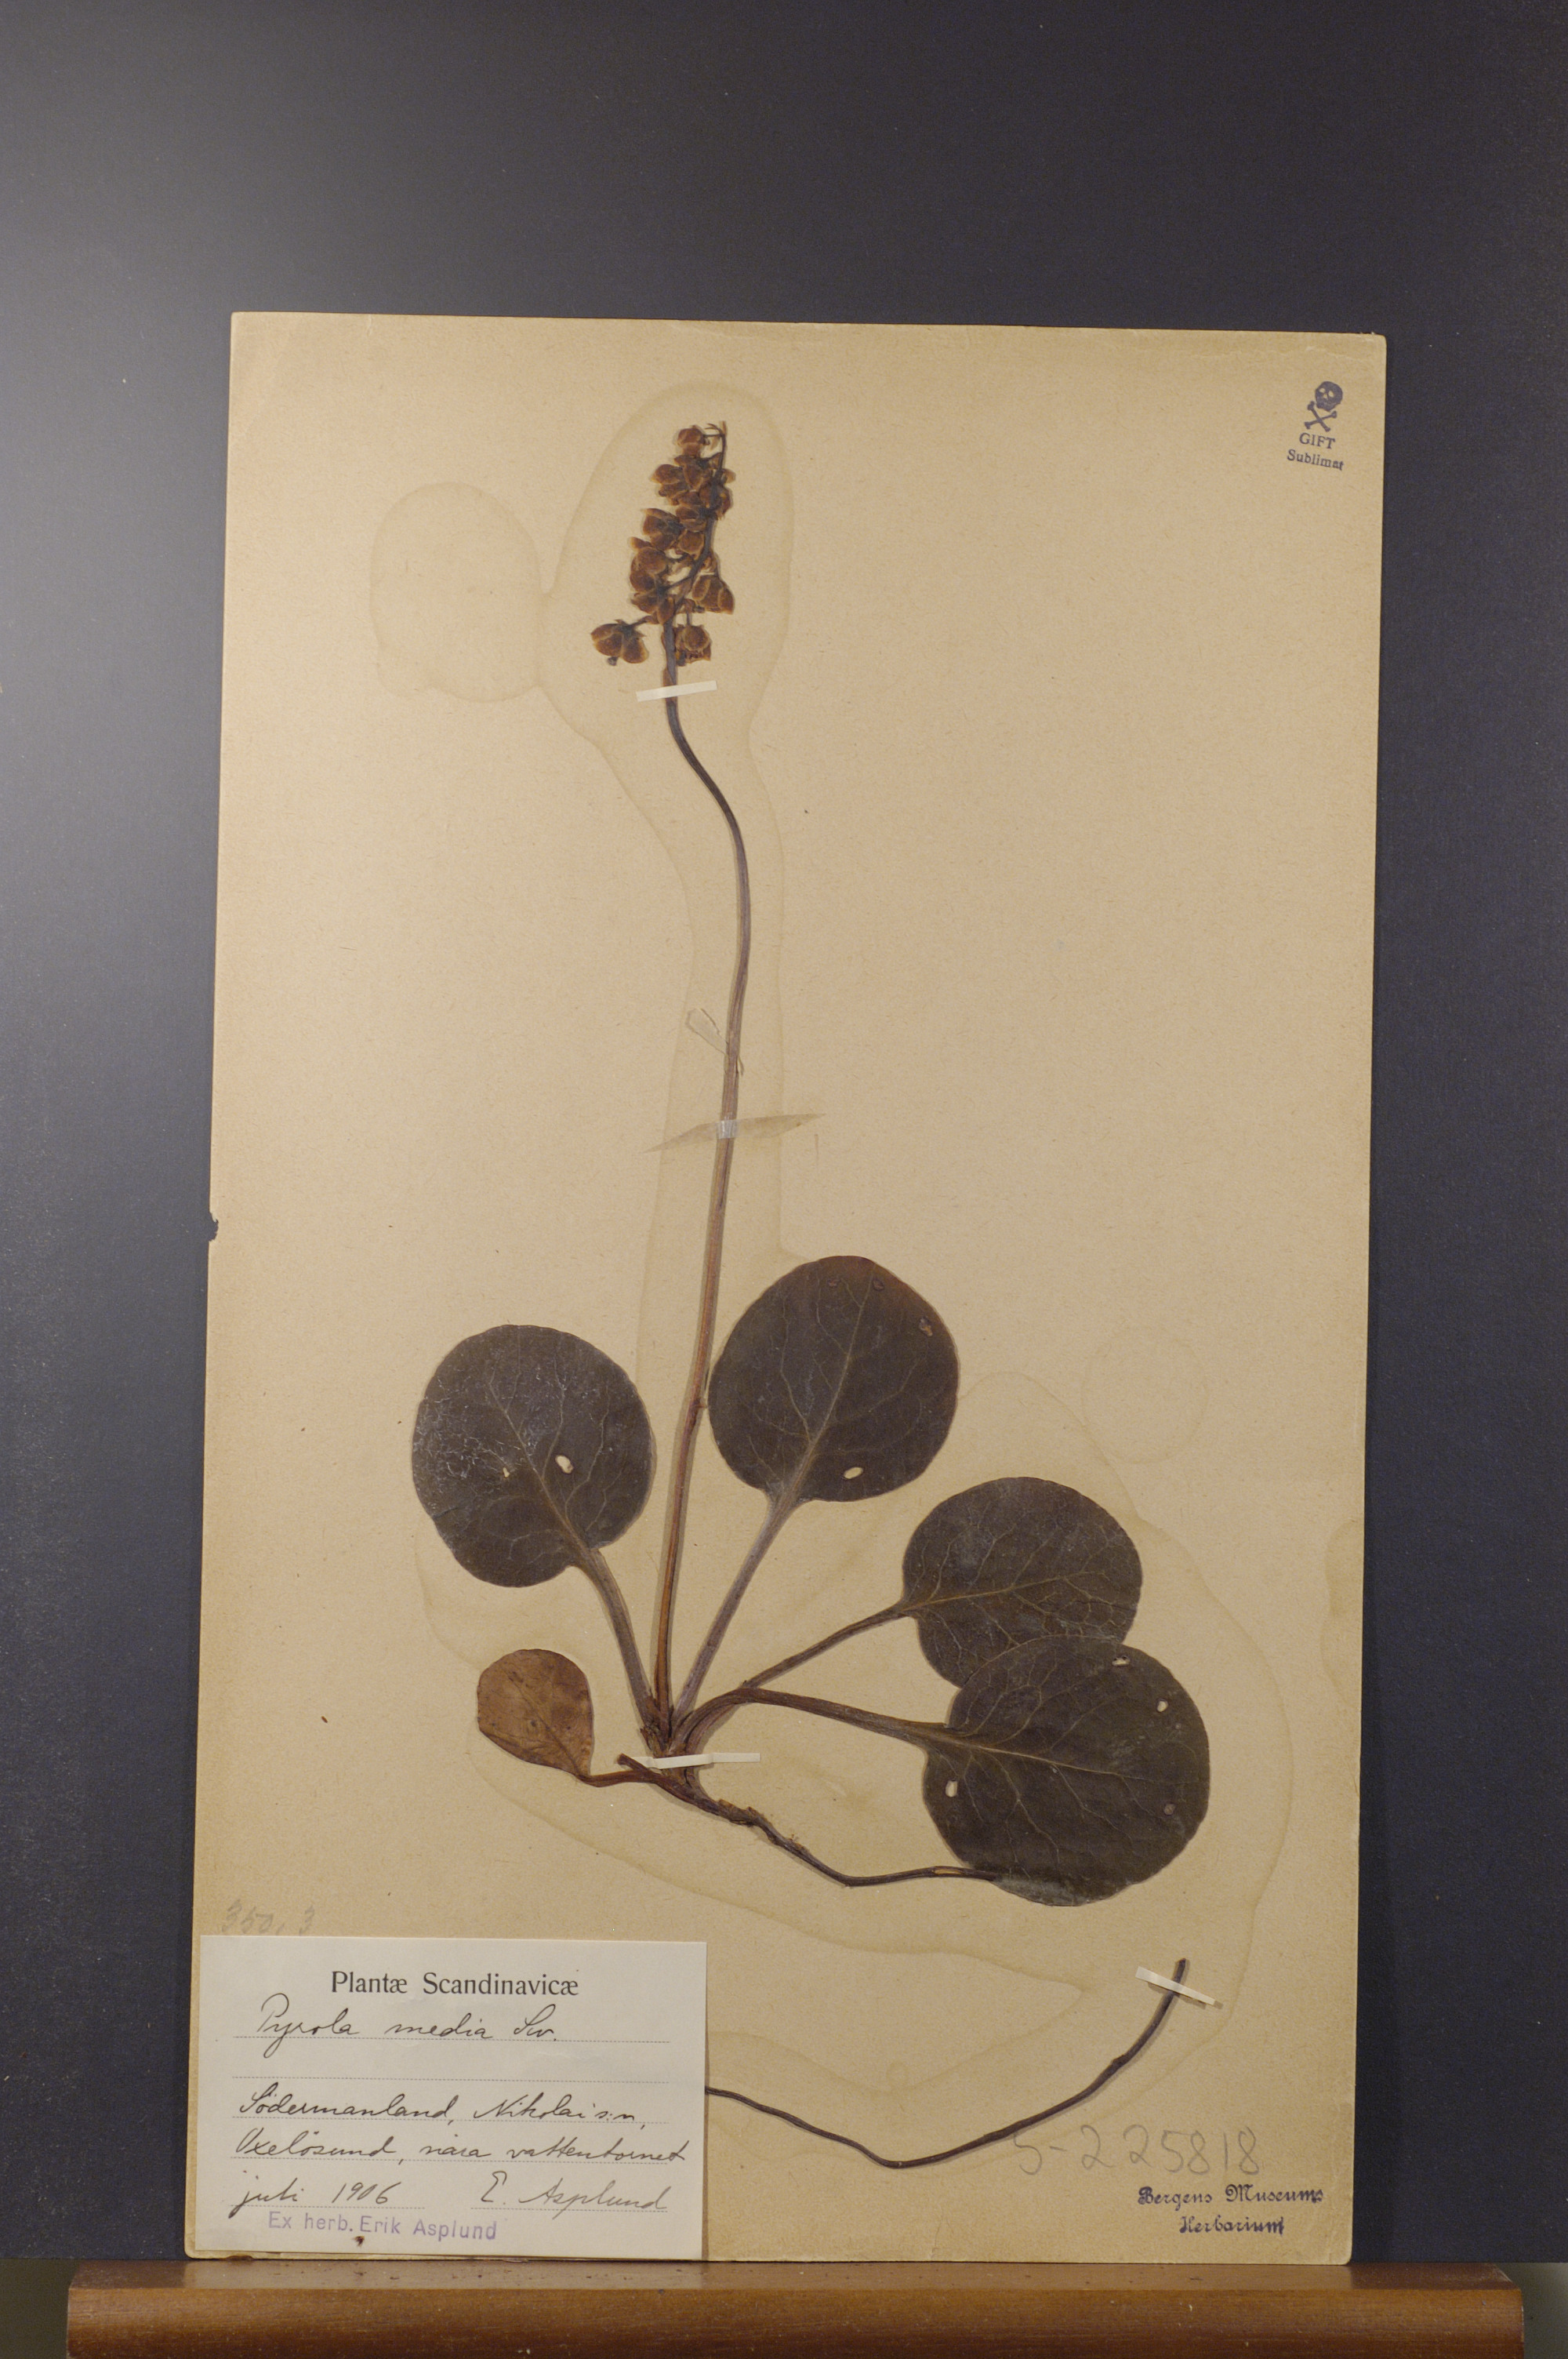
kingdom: Plantae
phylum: Tracheophyta
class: Magnoliopsida
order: Ericales
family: Ericaceae
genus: Pyrola
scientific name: Pyrola media
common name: Intermediate wintergreen
